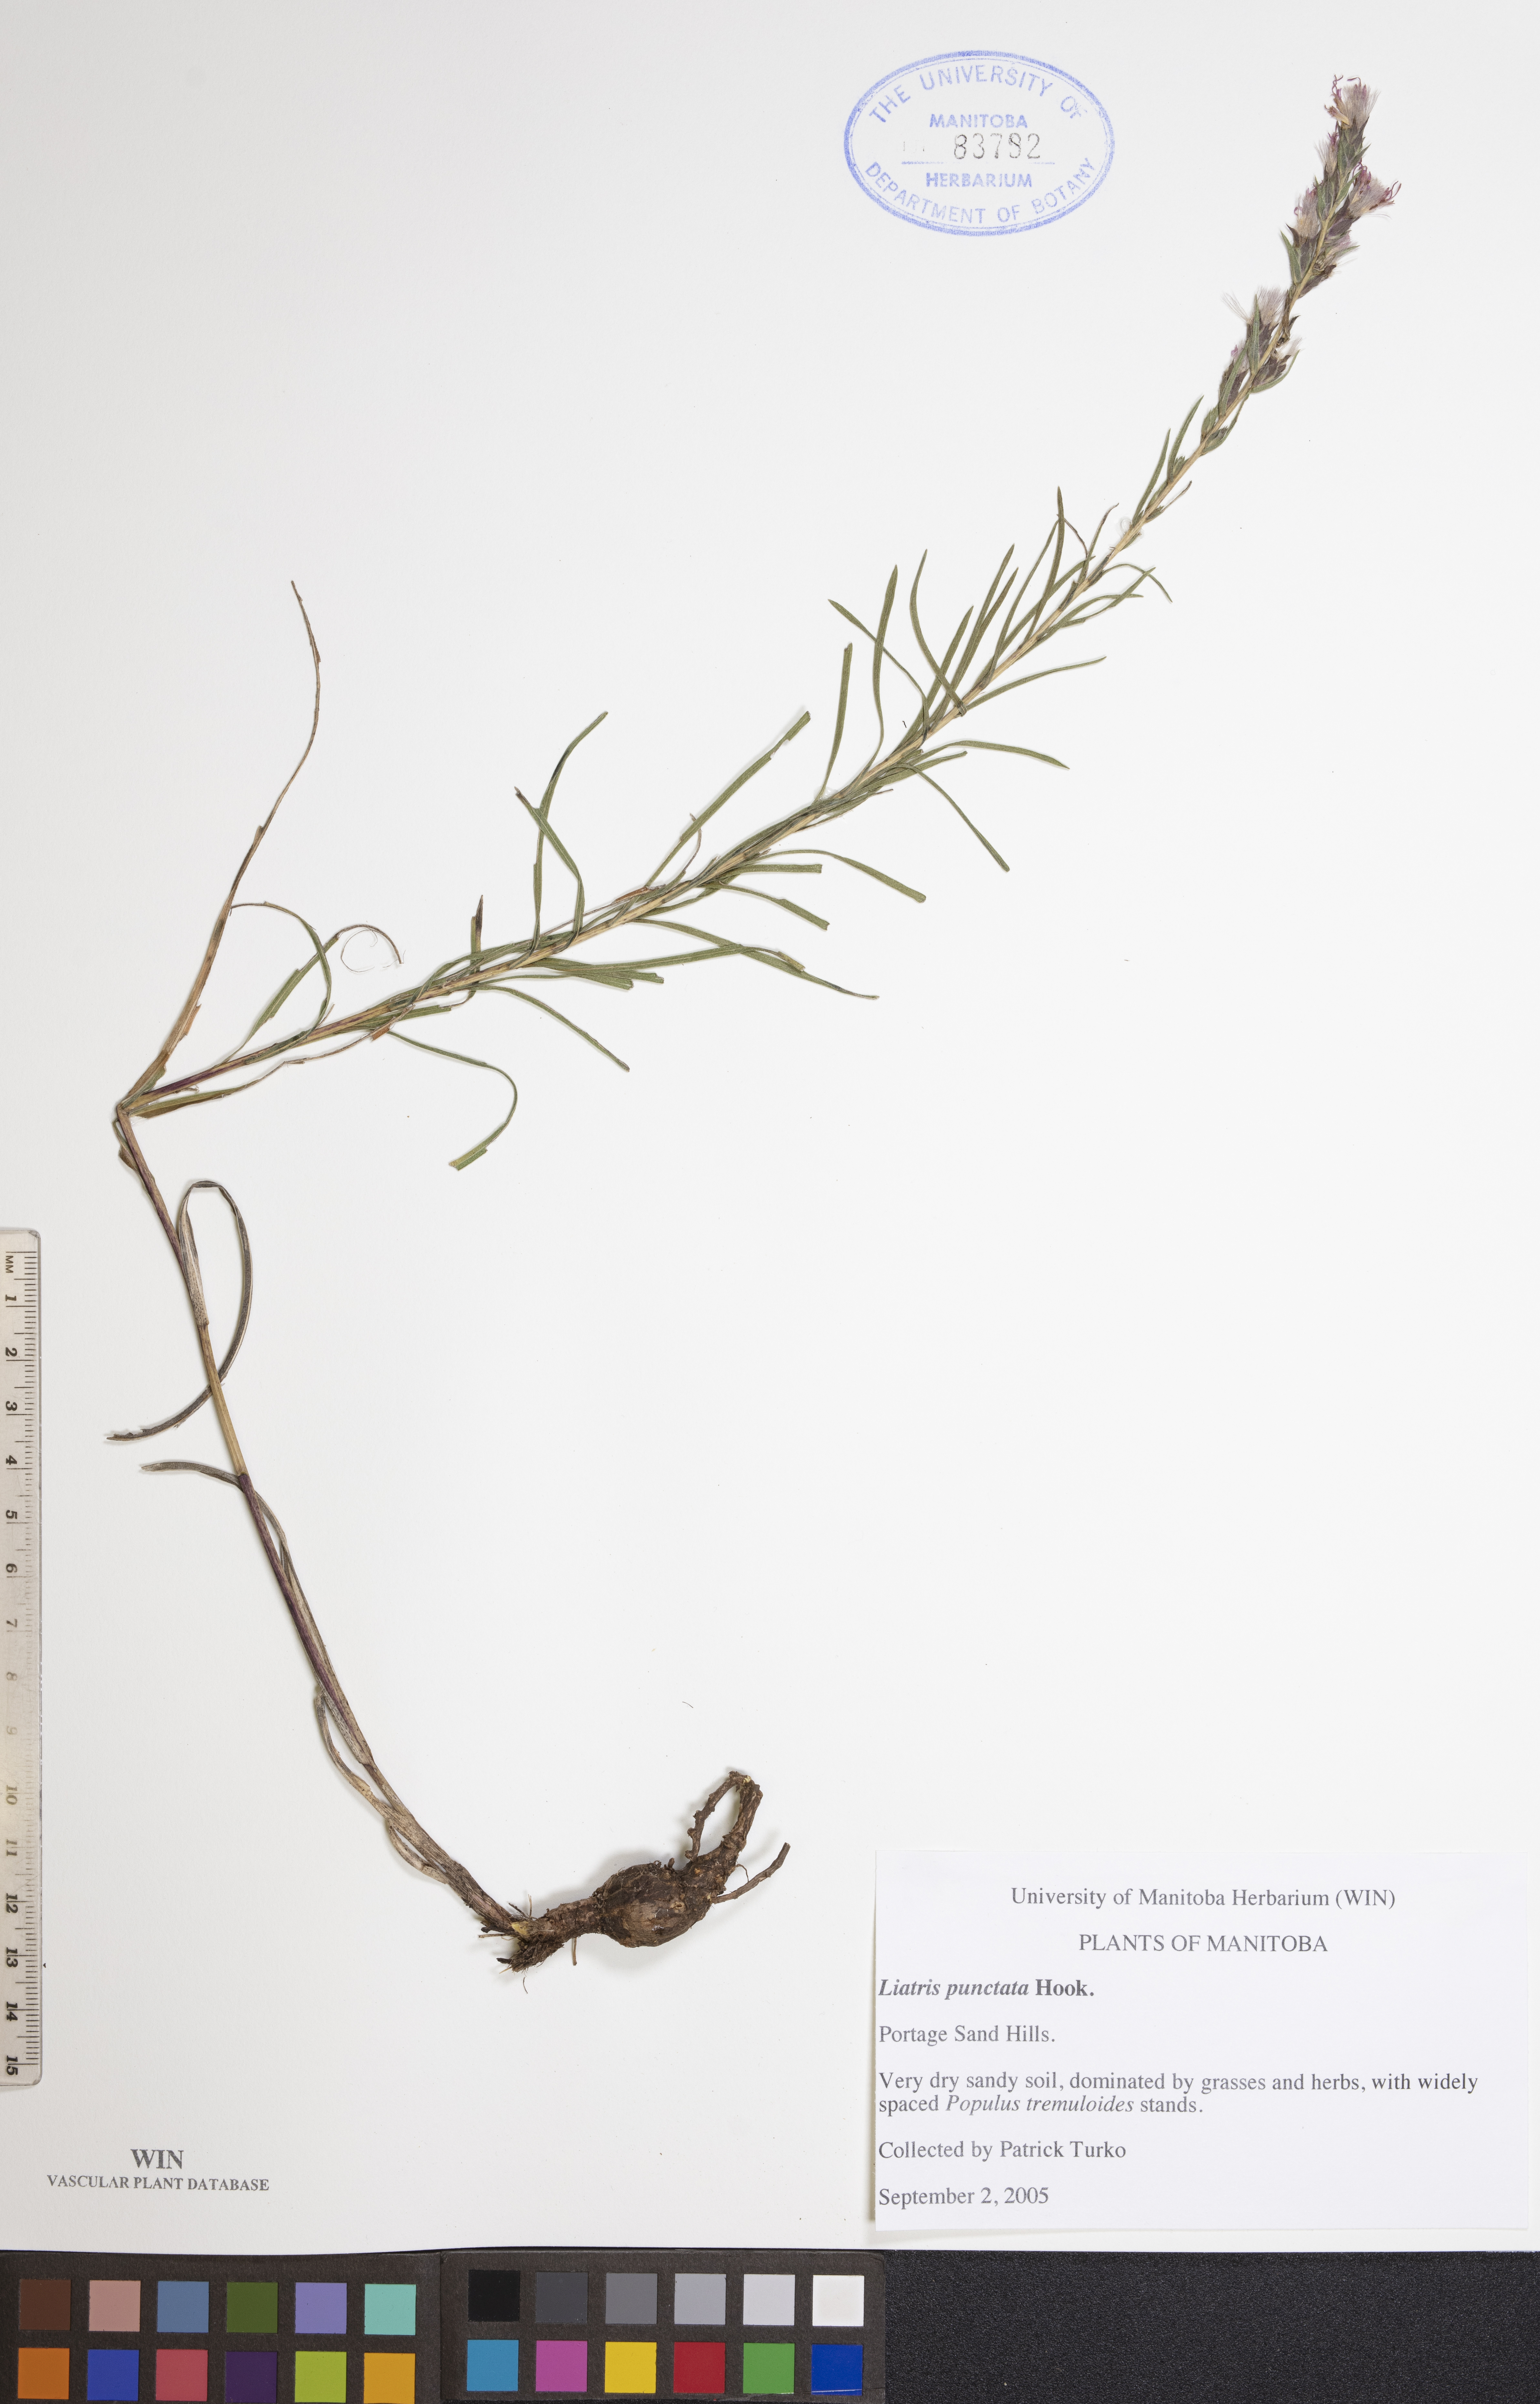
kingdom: Plantae
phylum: Tracheophyta
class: Magnoliopsida
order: Asterales
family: Asteraceae
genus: Liatris
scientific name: Liatris punctata
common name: Dotted gayfeather
